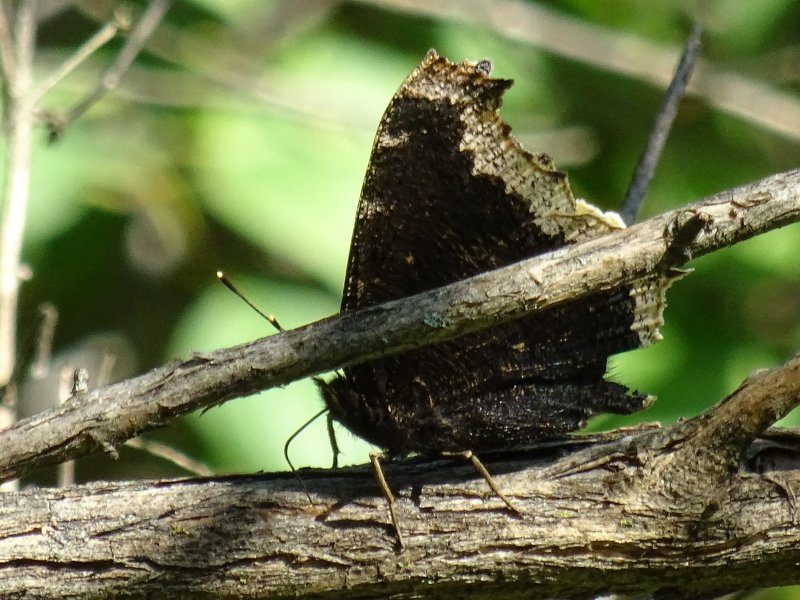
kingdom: Animalia
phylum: Arthropoda
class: Insecta
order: Lepidoptera
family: Nymphalidae
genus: Nymphalis
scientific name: Nymphalis antiopa
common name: Mourning Cloak
